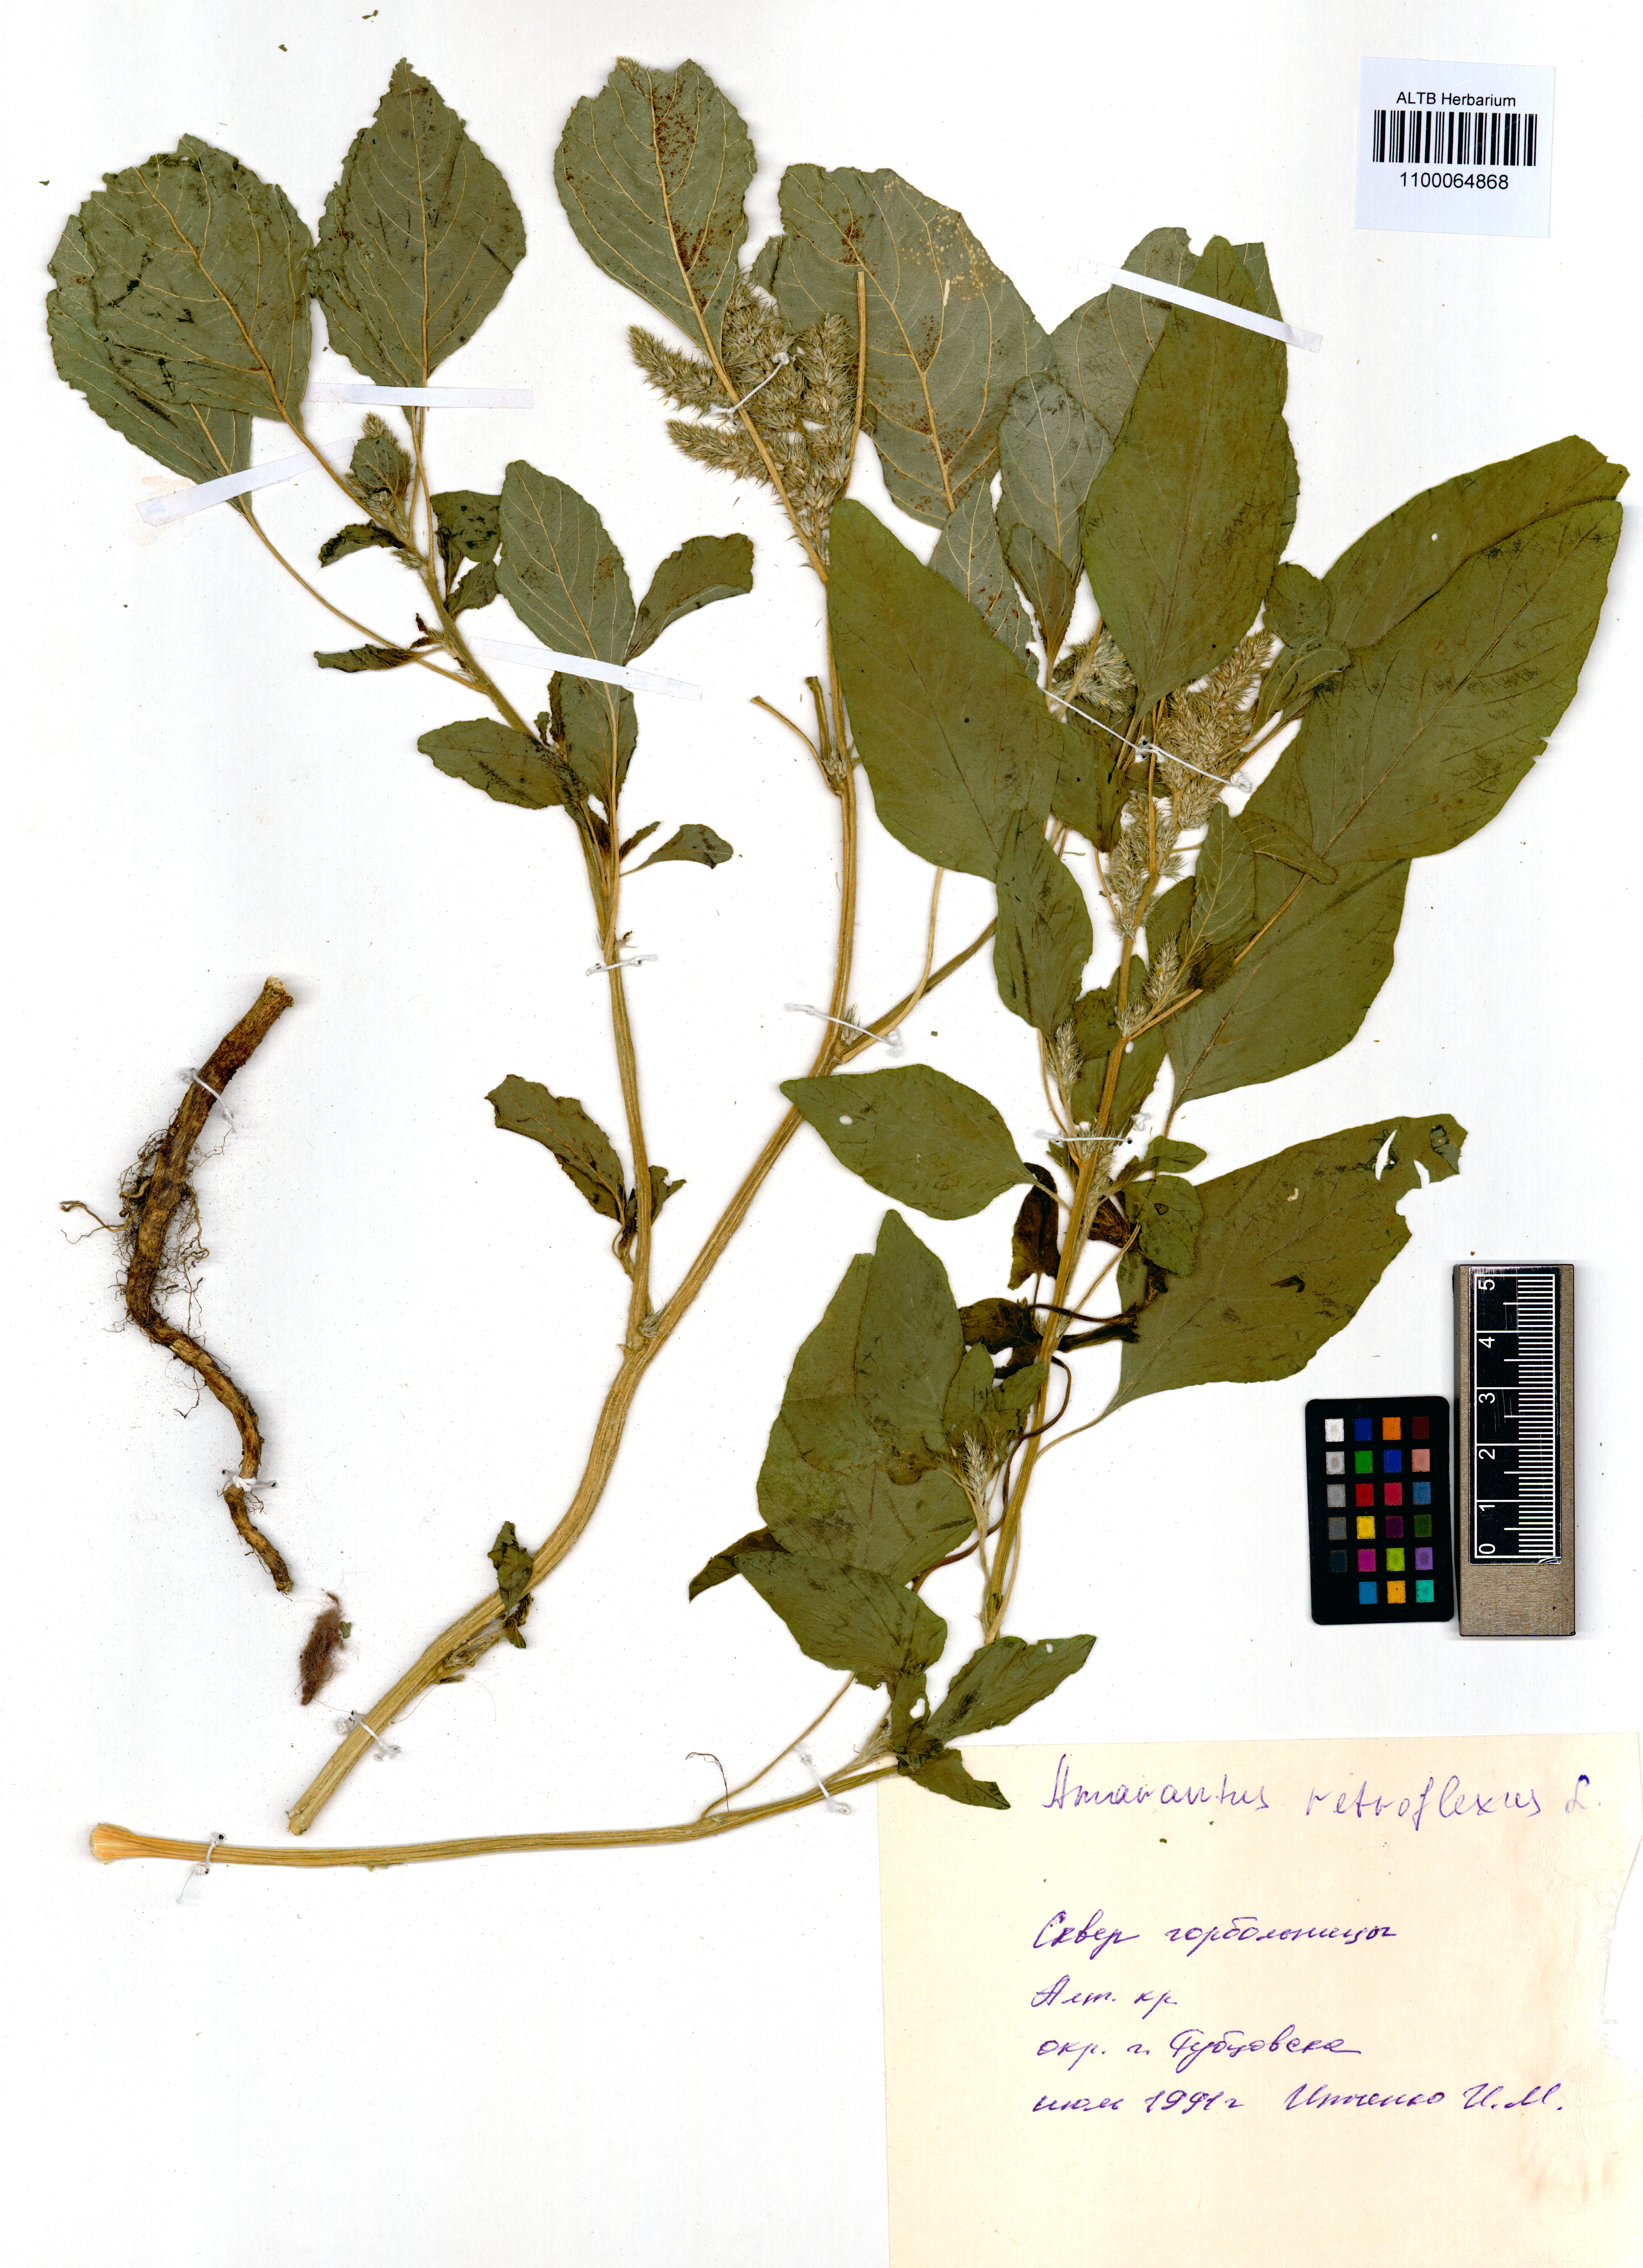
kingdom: Plantae
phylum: Tracheophyta
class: Magnoliopsida
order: Caryophyllales
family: Amaranthaceae
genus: Amaranthus
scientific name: Amaranthus retroflexus
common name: Redroot amaranth
